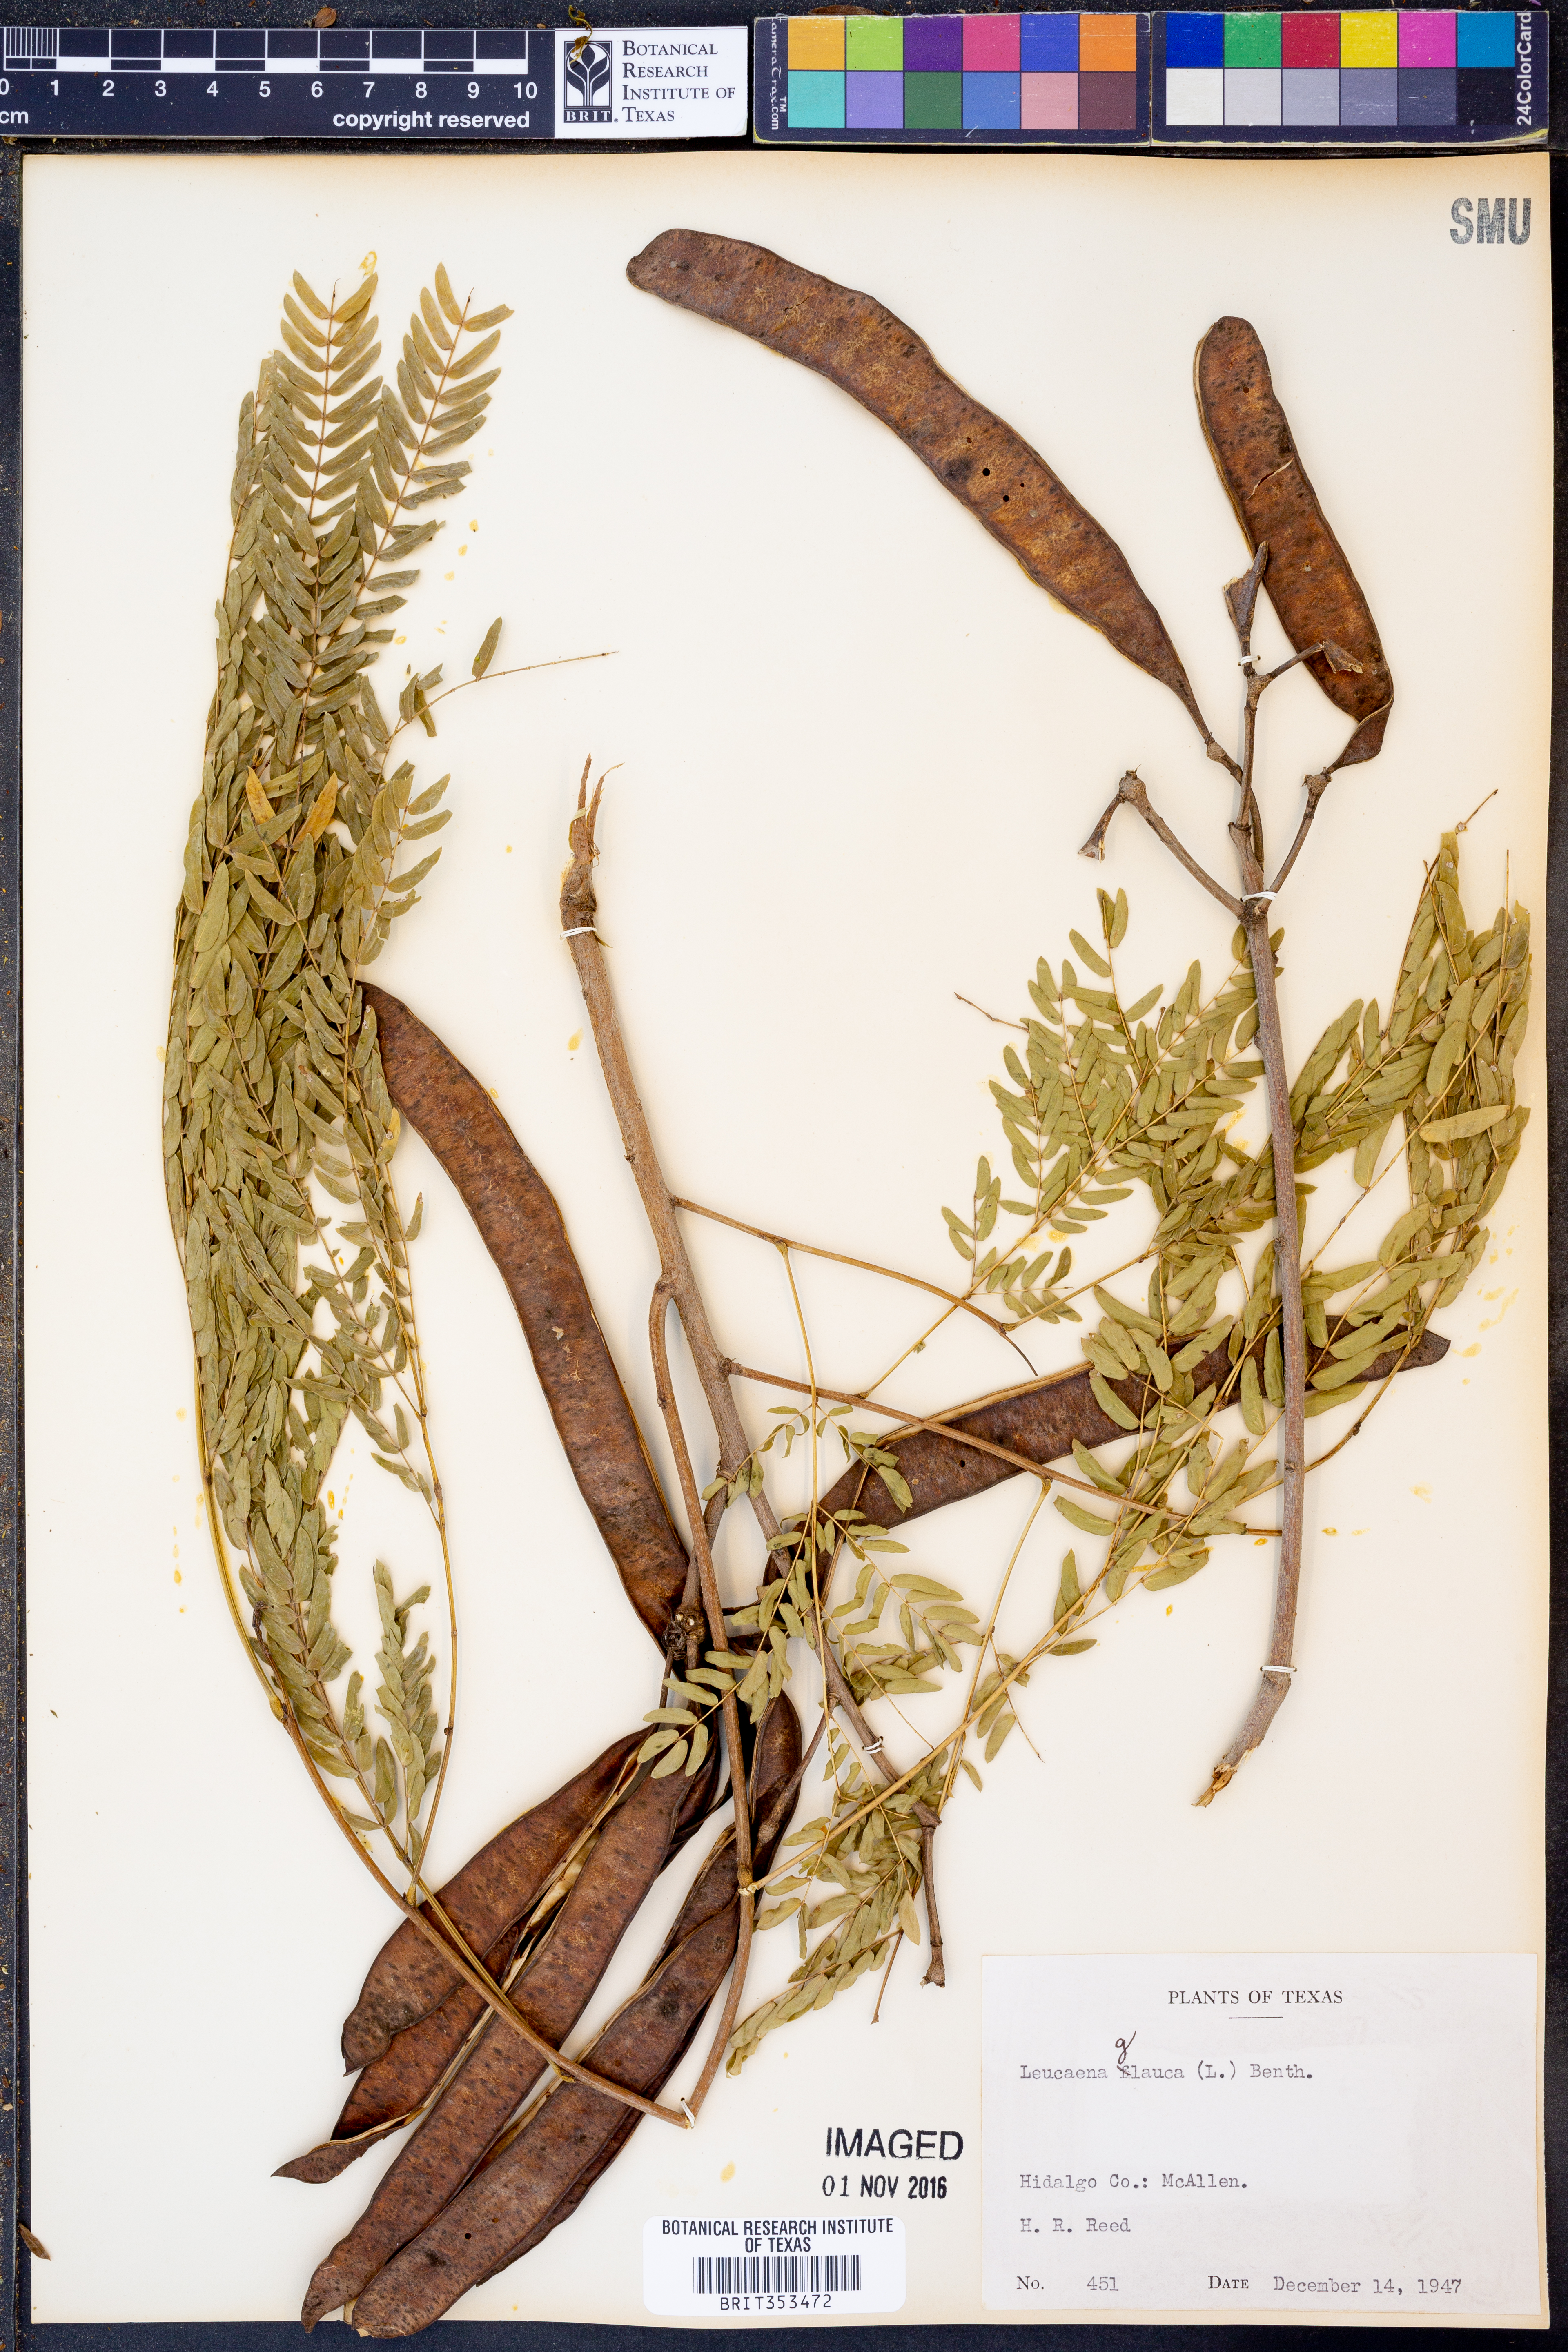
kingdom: Plantae
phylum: Tracheophyta
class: Magnoliopsida
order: Fabales
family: Fabaceae
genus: Acaciella
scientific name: Acaciella glauca
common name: Redwood
